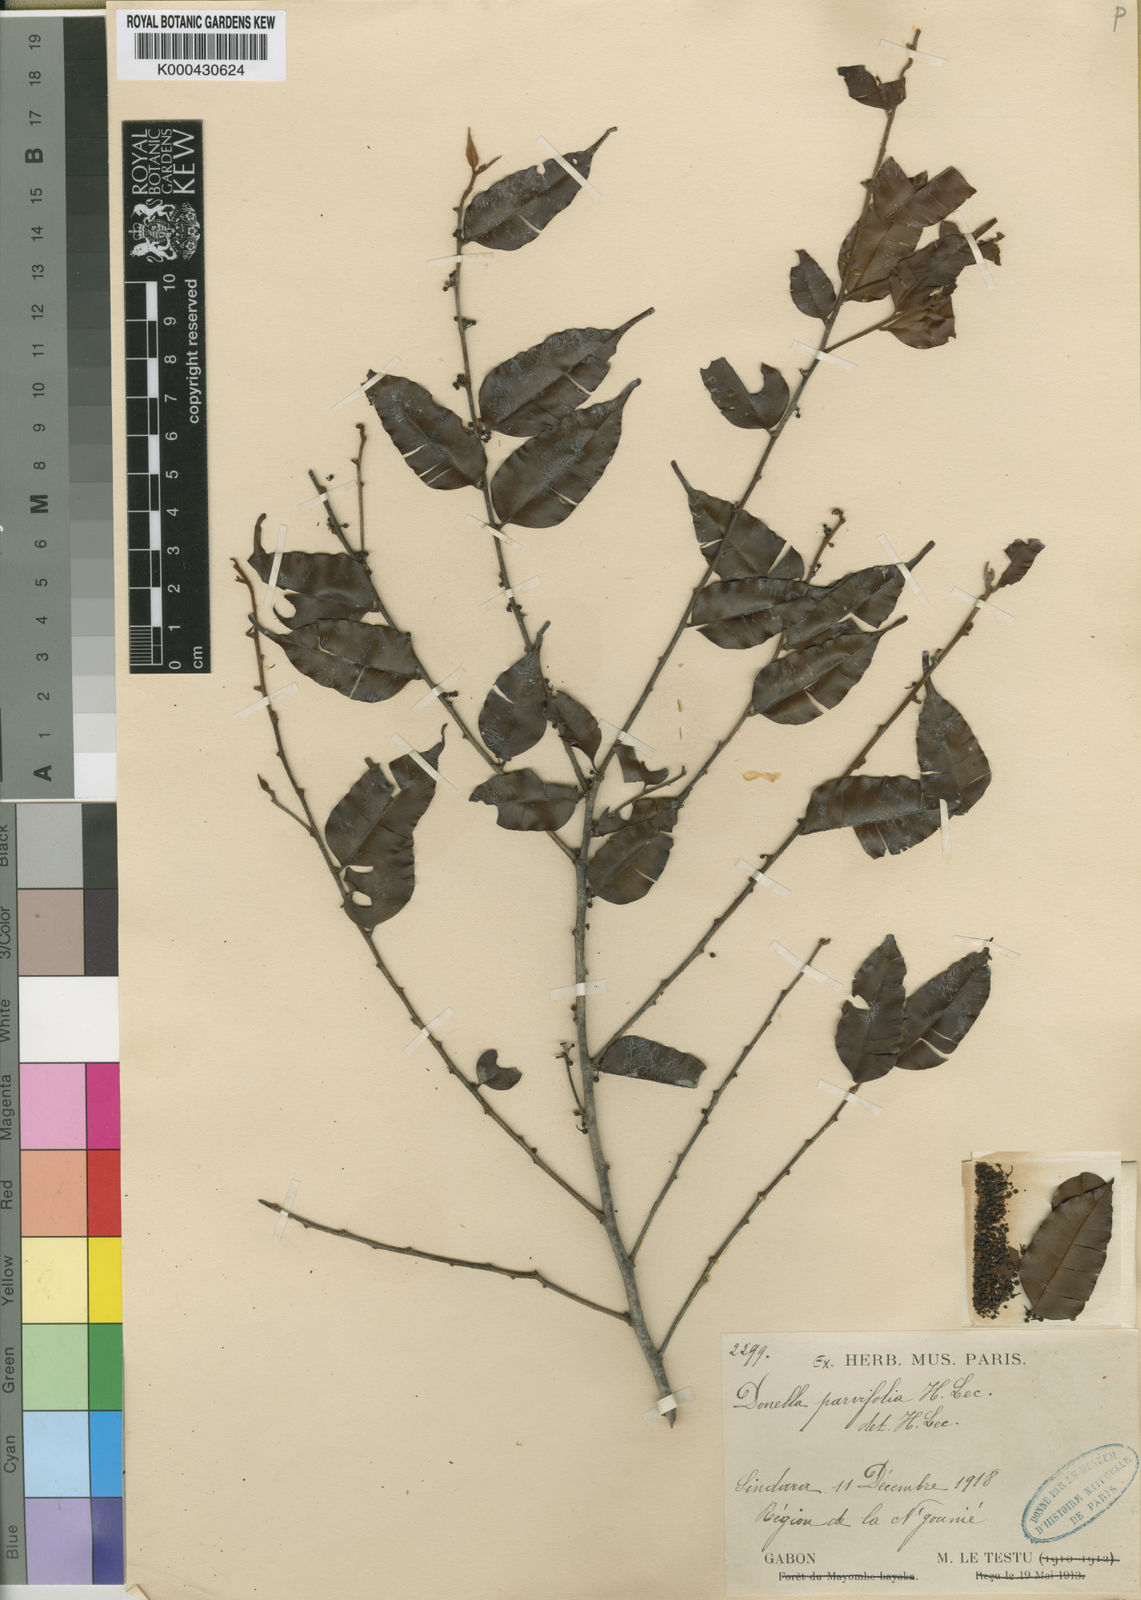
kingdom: Plantae
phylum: Tracheophyta
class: Magnoliopsida
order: Ericales
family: Sapotaceae
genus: Pycnandra
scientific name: Pycnandra lissophylla
